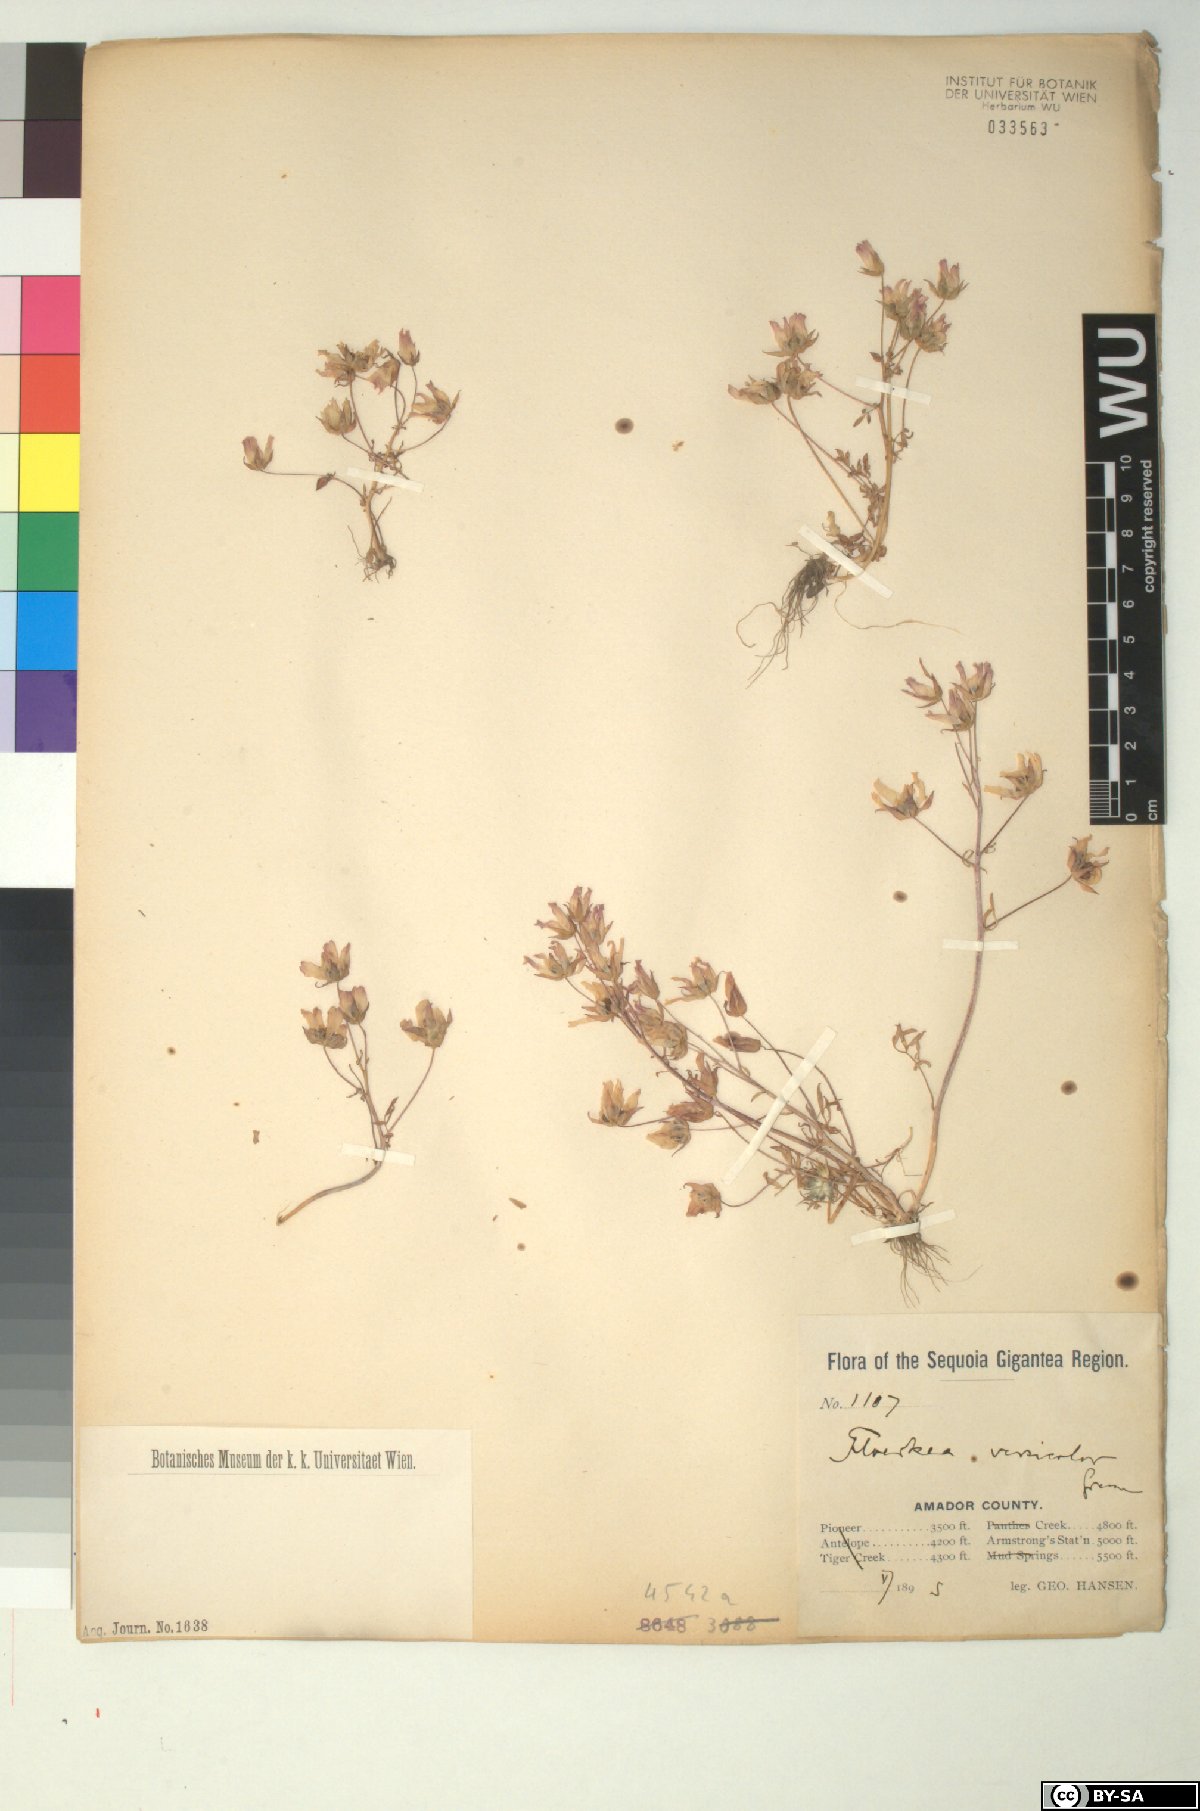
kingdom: Plantae
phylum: Tracheophyta
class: Magnoliopsida
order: Brassicales
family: Limnanthaceae
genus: Limnanthes
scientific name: Limnanthes alba
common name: Meadowfoam
